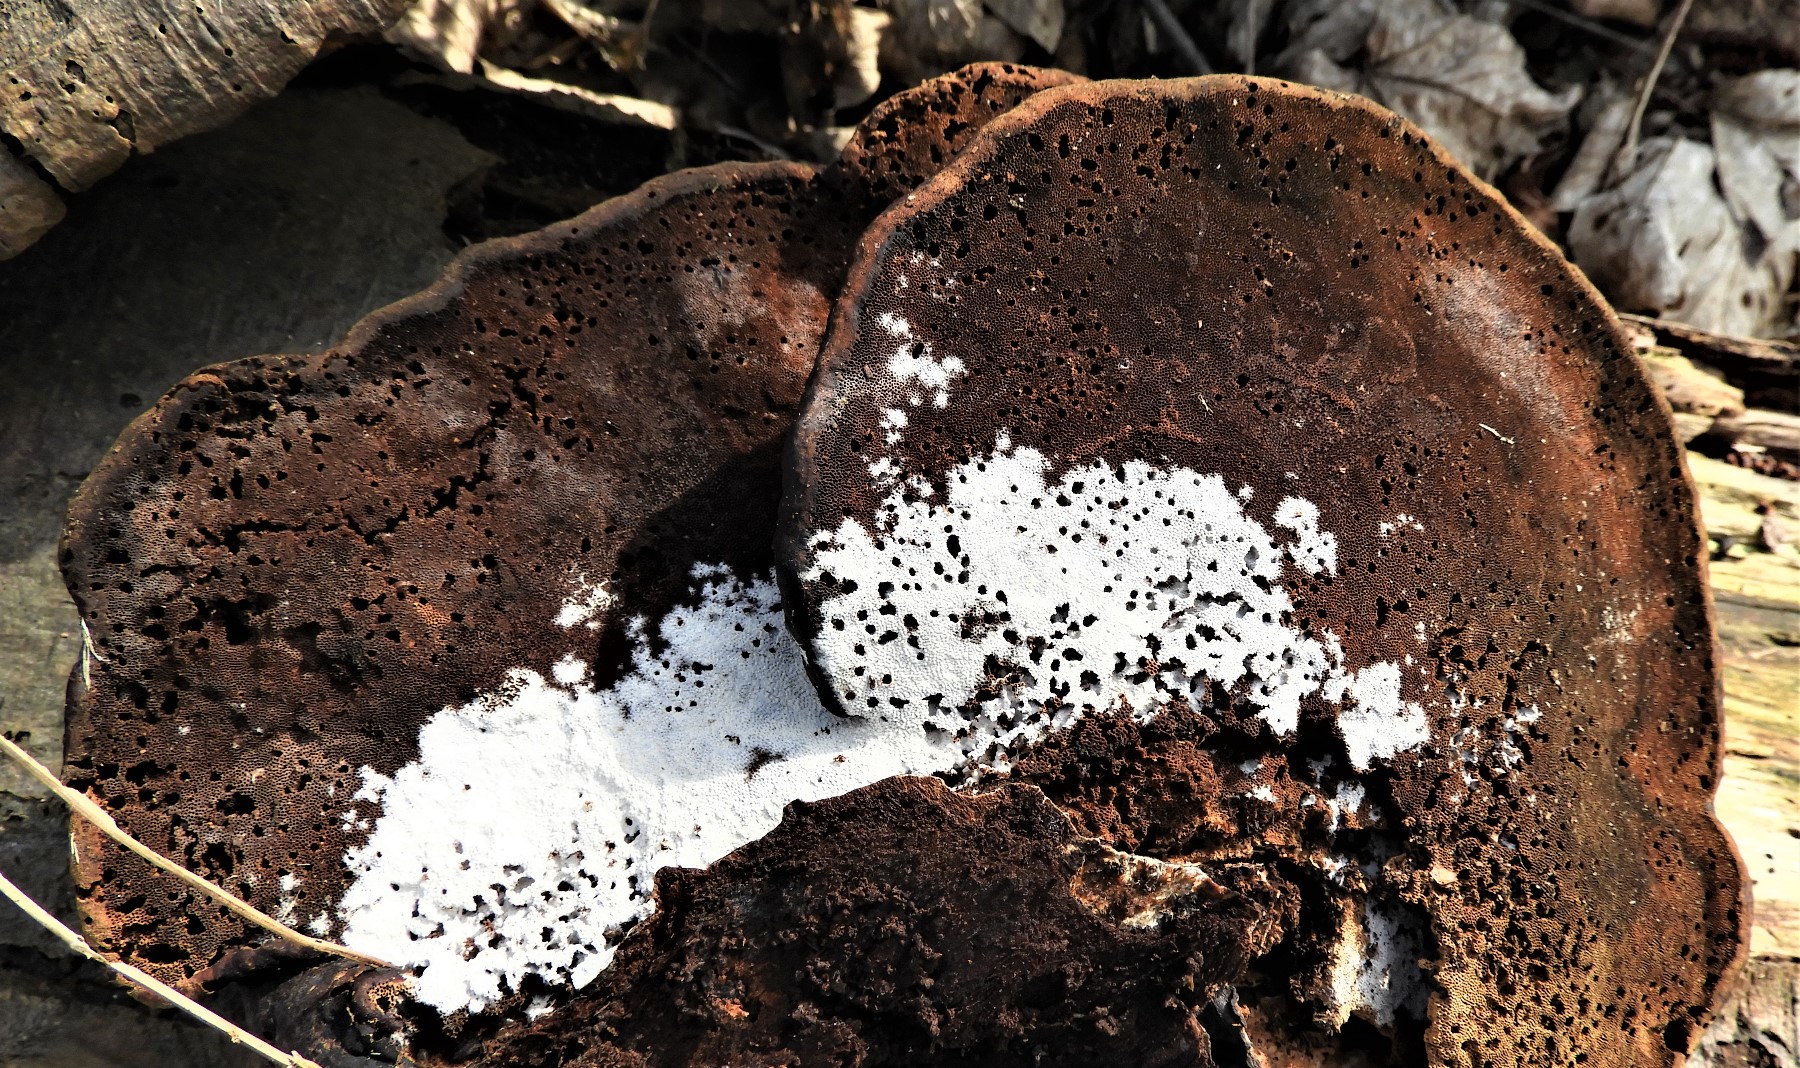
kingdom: Fungi
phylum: Basidiomycota
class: Agaricomycetes
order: Polyporales
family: Polyporaceae
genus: Fomes
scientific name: Fomes fomentarius
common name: tøndersvamp
